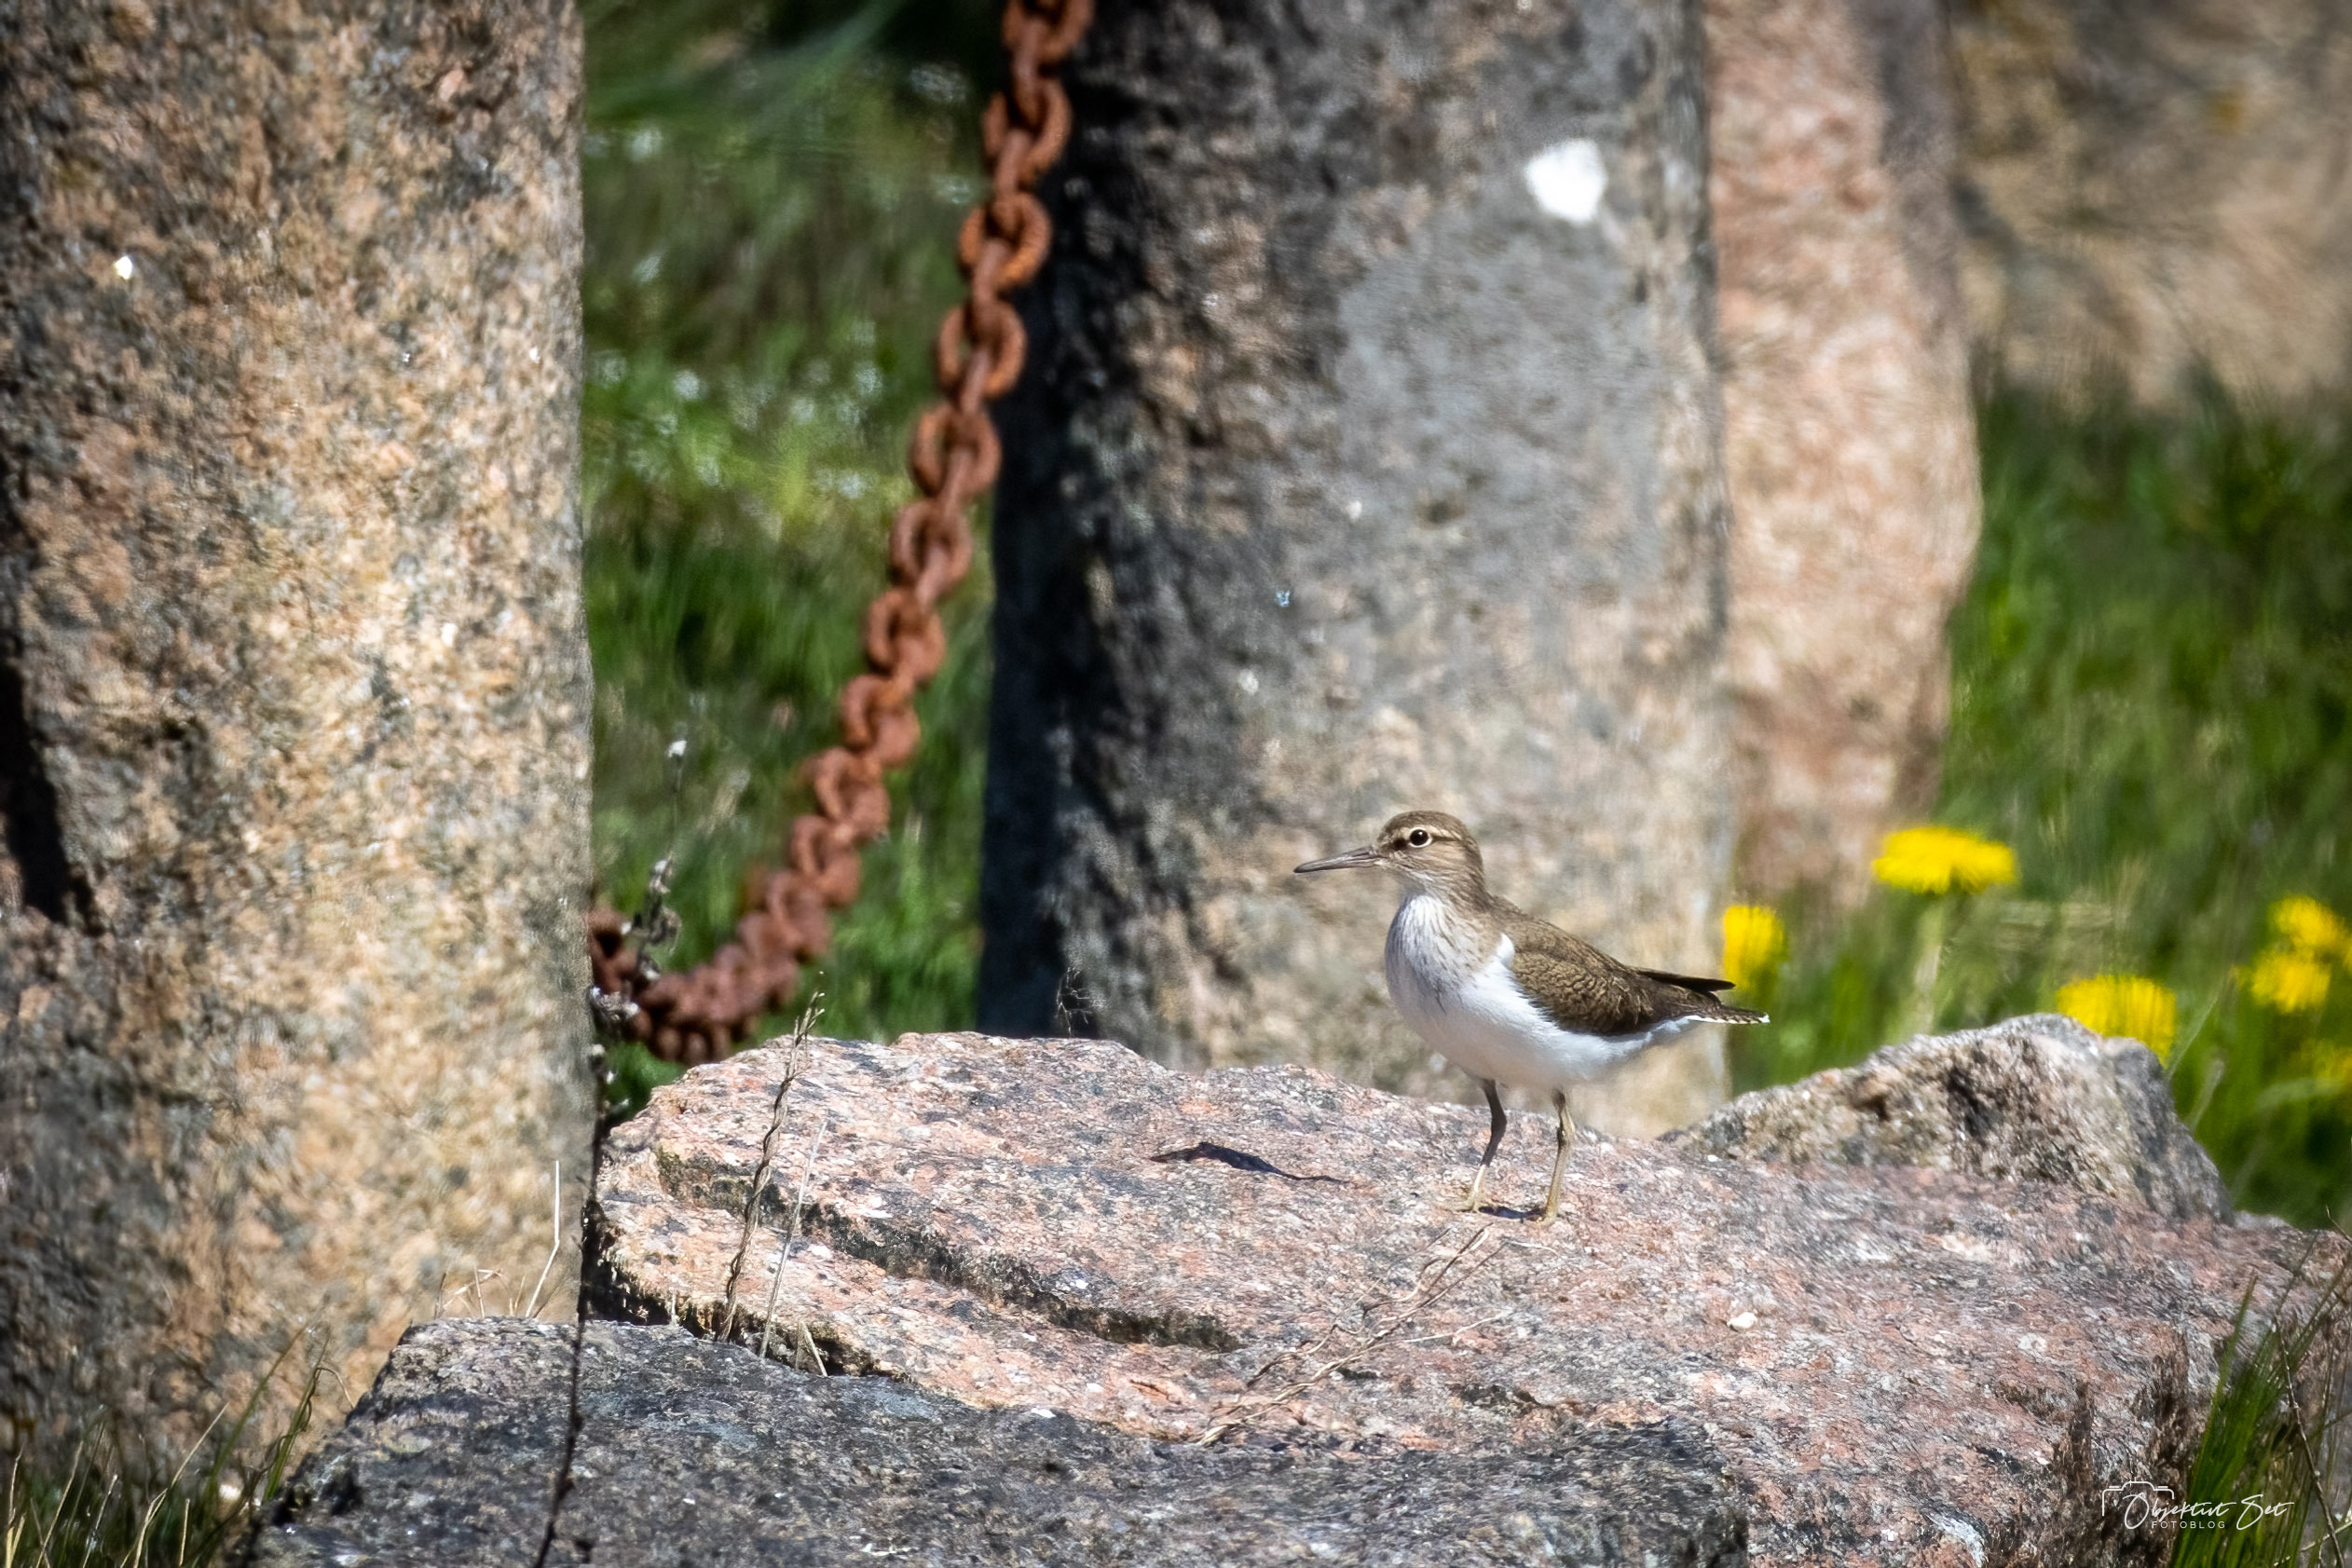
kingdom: Animalia
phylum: Chordata
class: Aves
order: Charadriiformes
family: Scolopacidae
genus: Actitis
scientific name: Actitis hypoleucos
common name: Mudderklire
